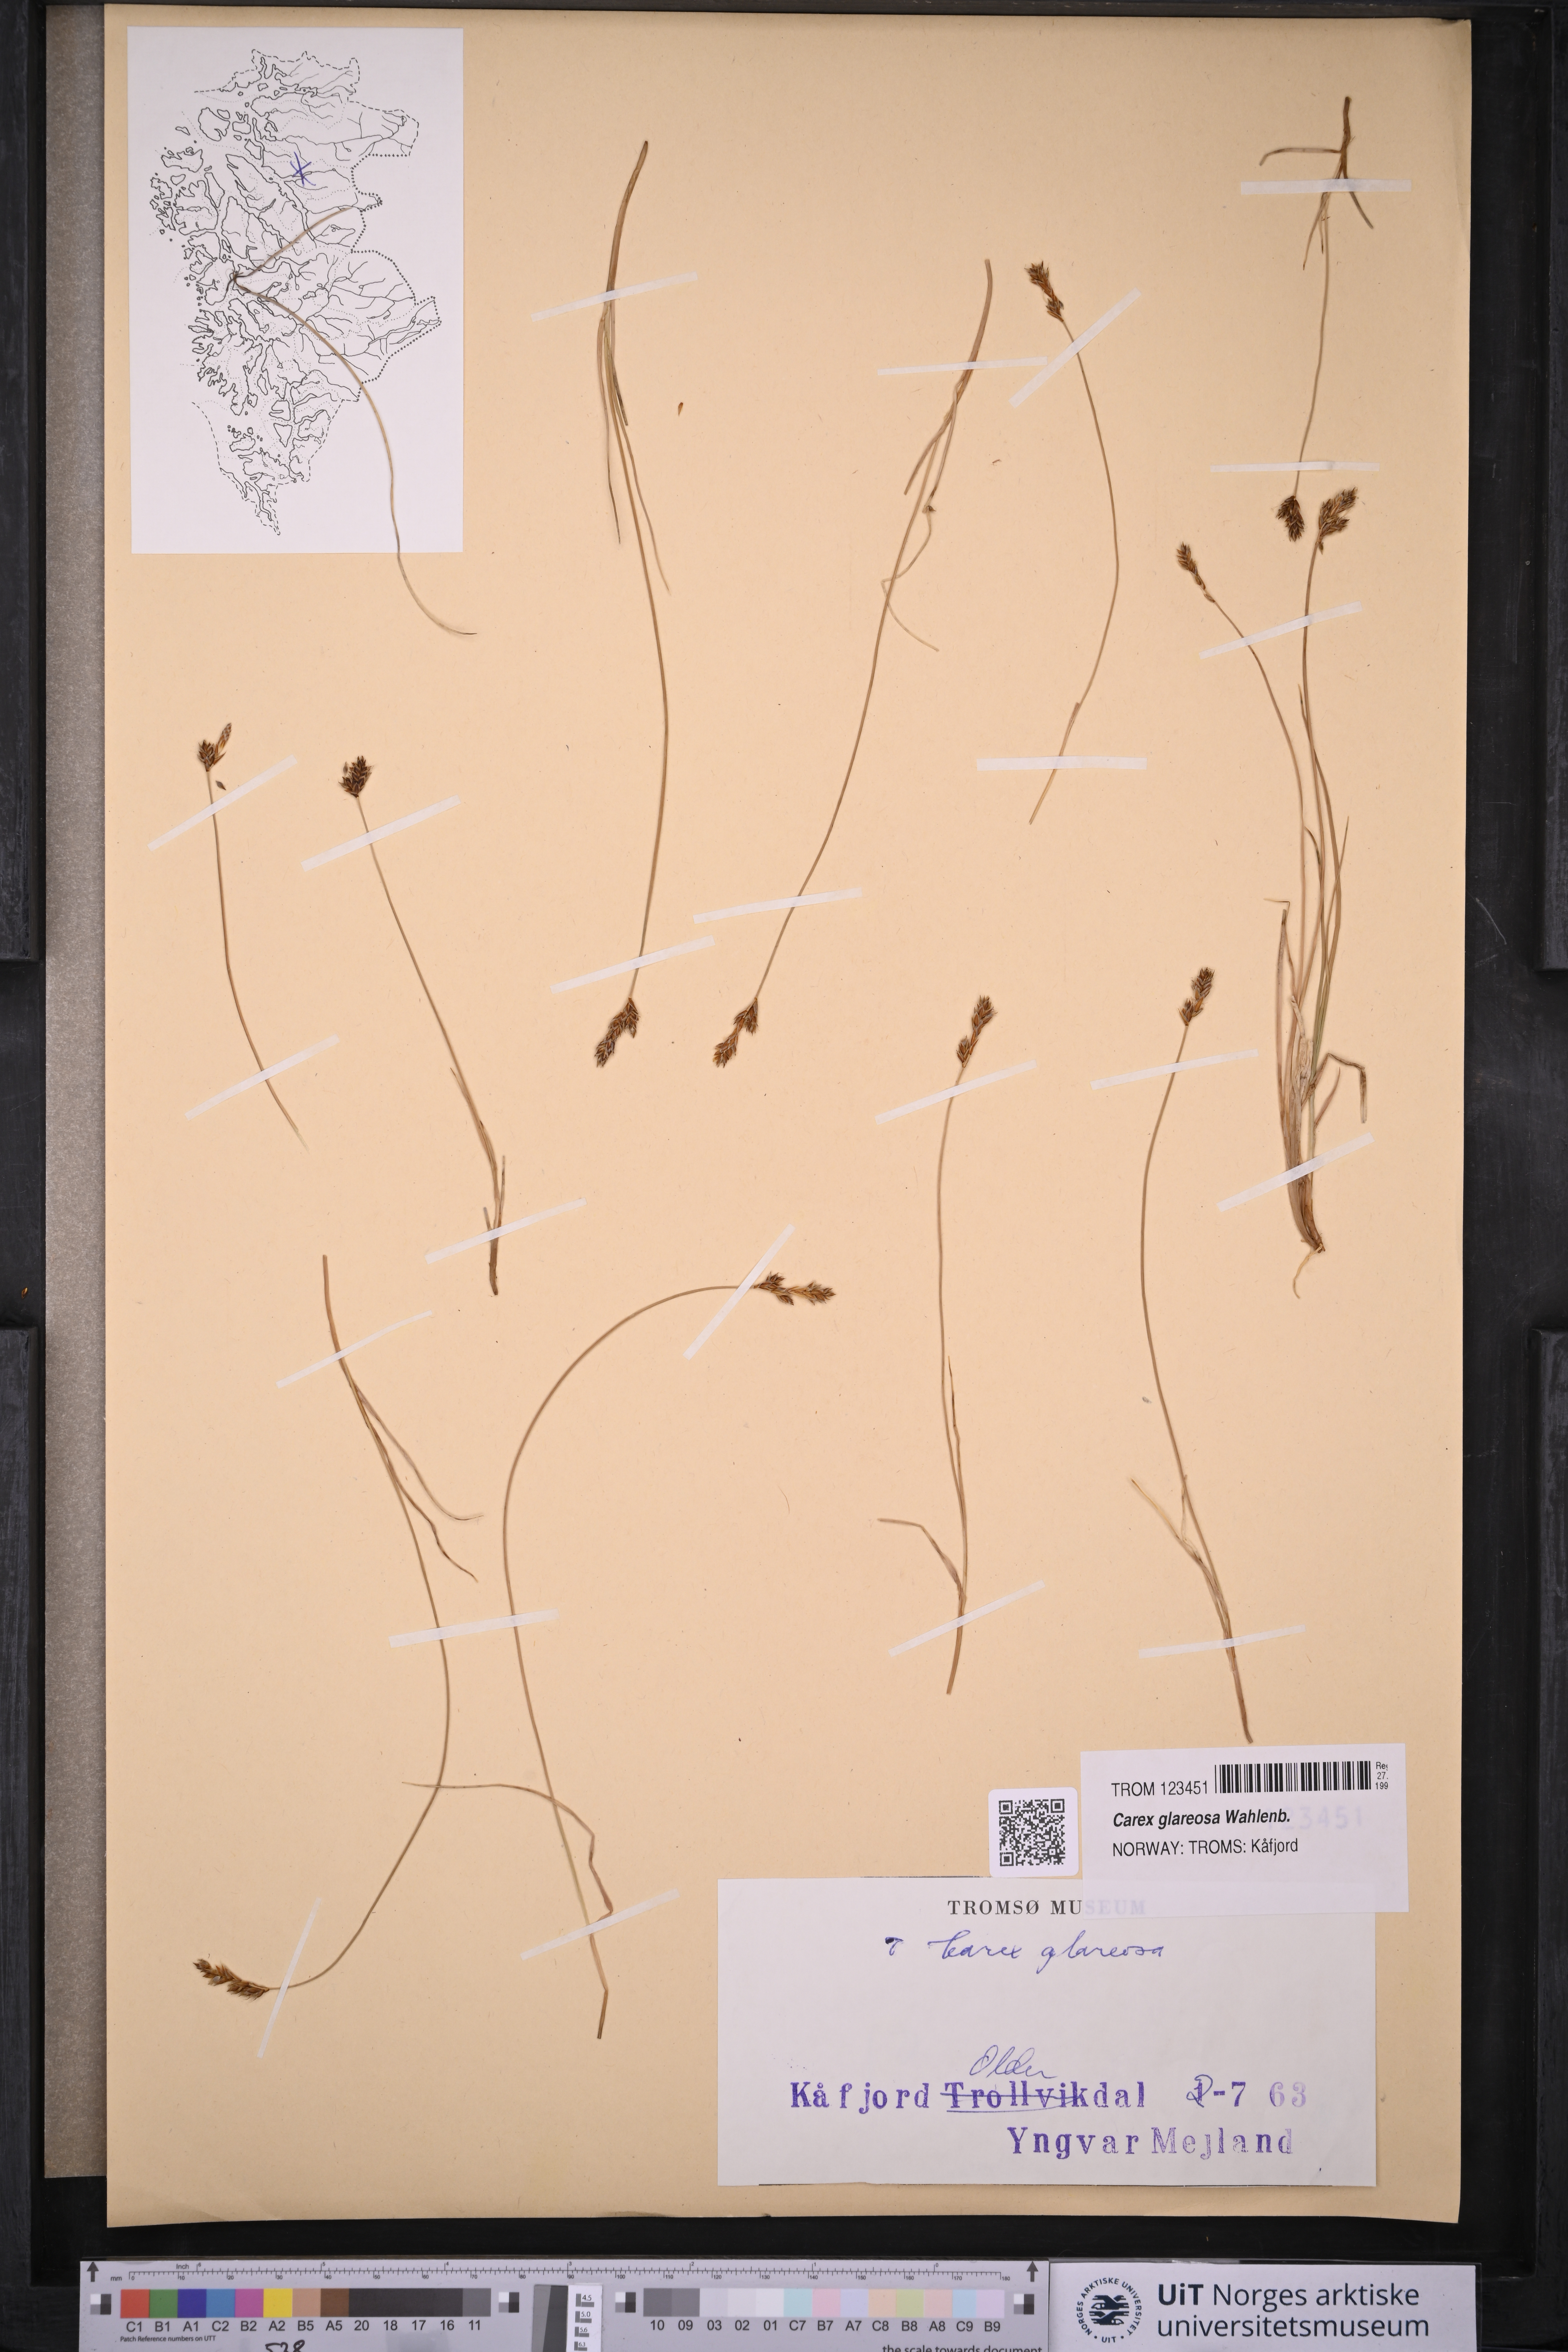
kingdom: Plantae
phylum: Tracheophyta
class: Liliopsida
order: Poales
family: Cyperaceae
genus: Carex
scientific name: Carex glareosa
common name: Clustered sedge
